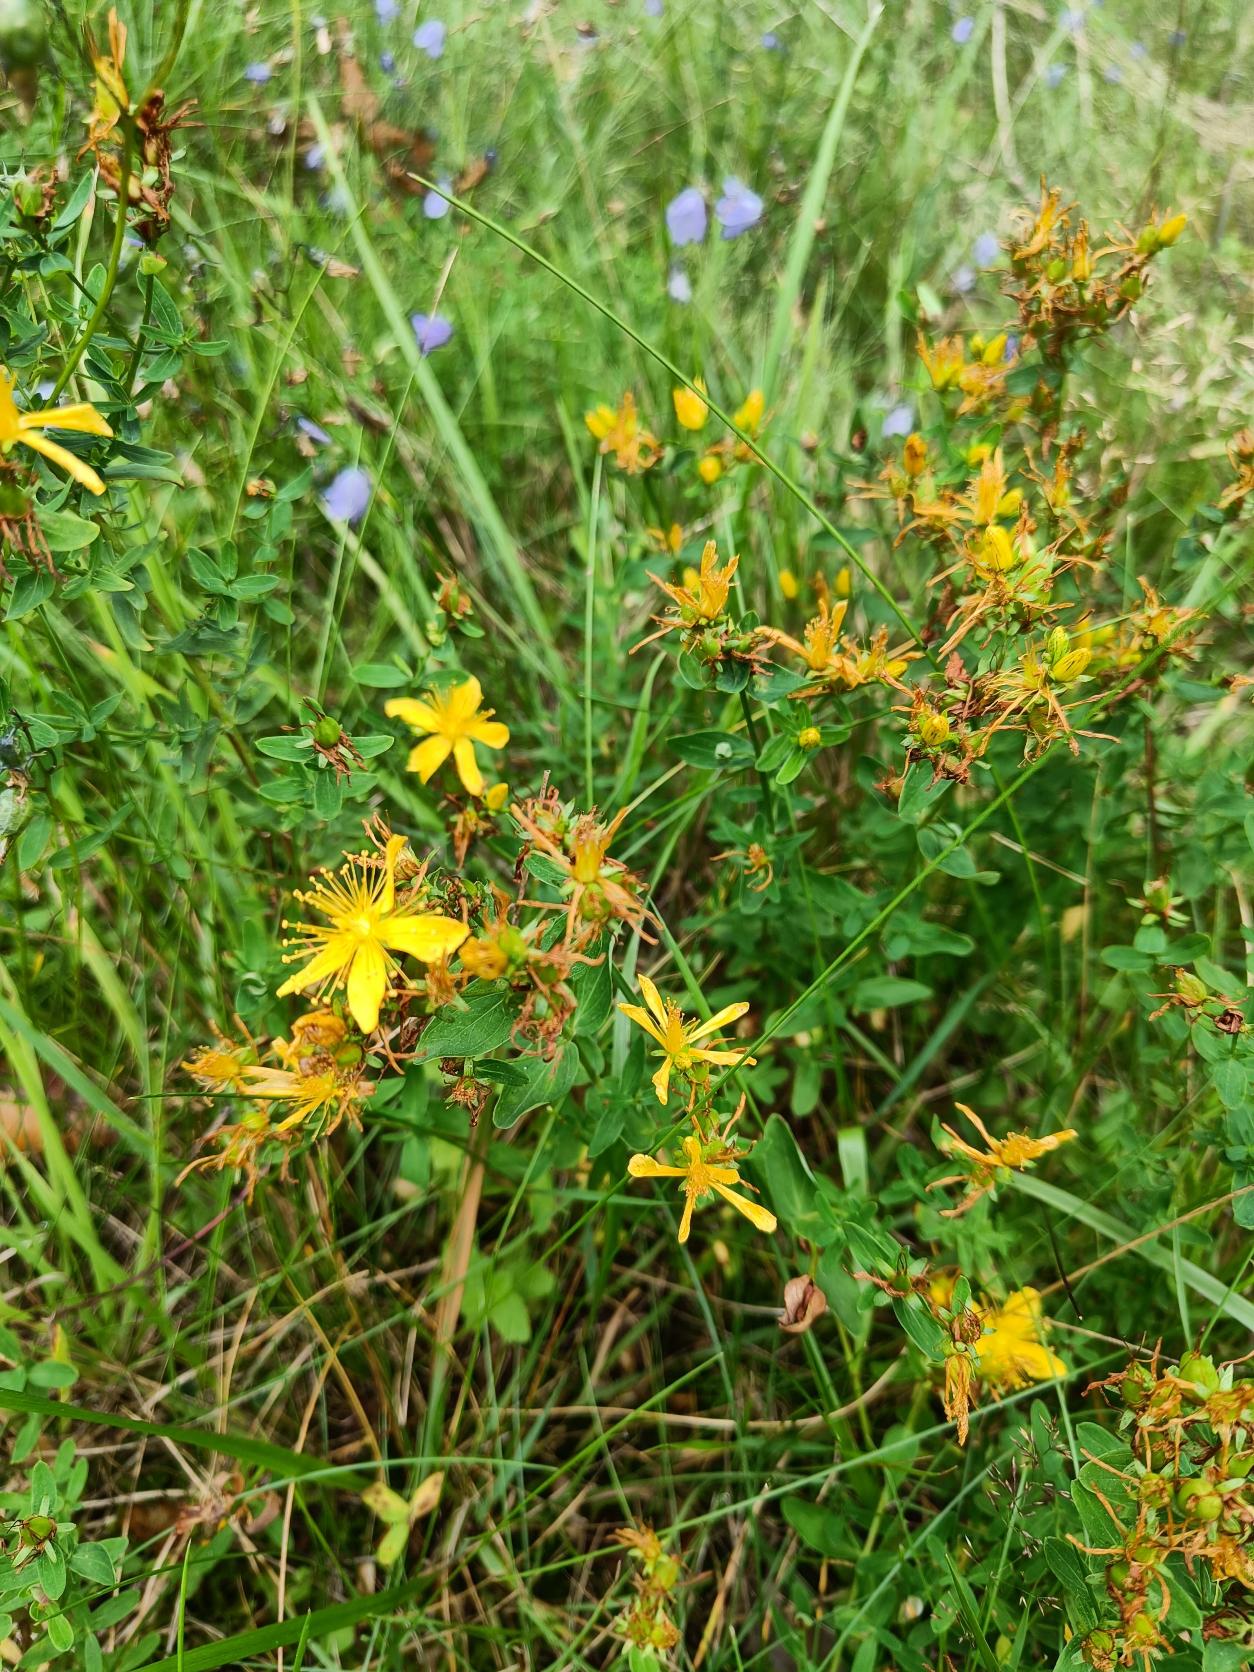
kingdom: Plantae
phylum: Tracheophyta
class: Magnoliopsida
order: Malpighiales
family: Hypericaceae
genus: Hypericum
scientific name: Hypericum perforatum
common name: Prikbladet perikon
